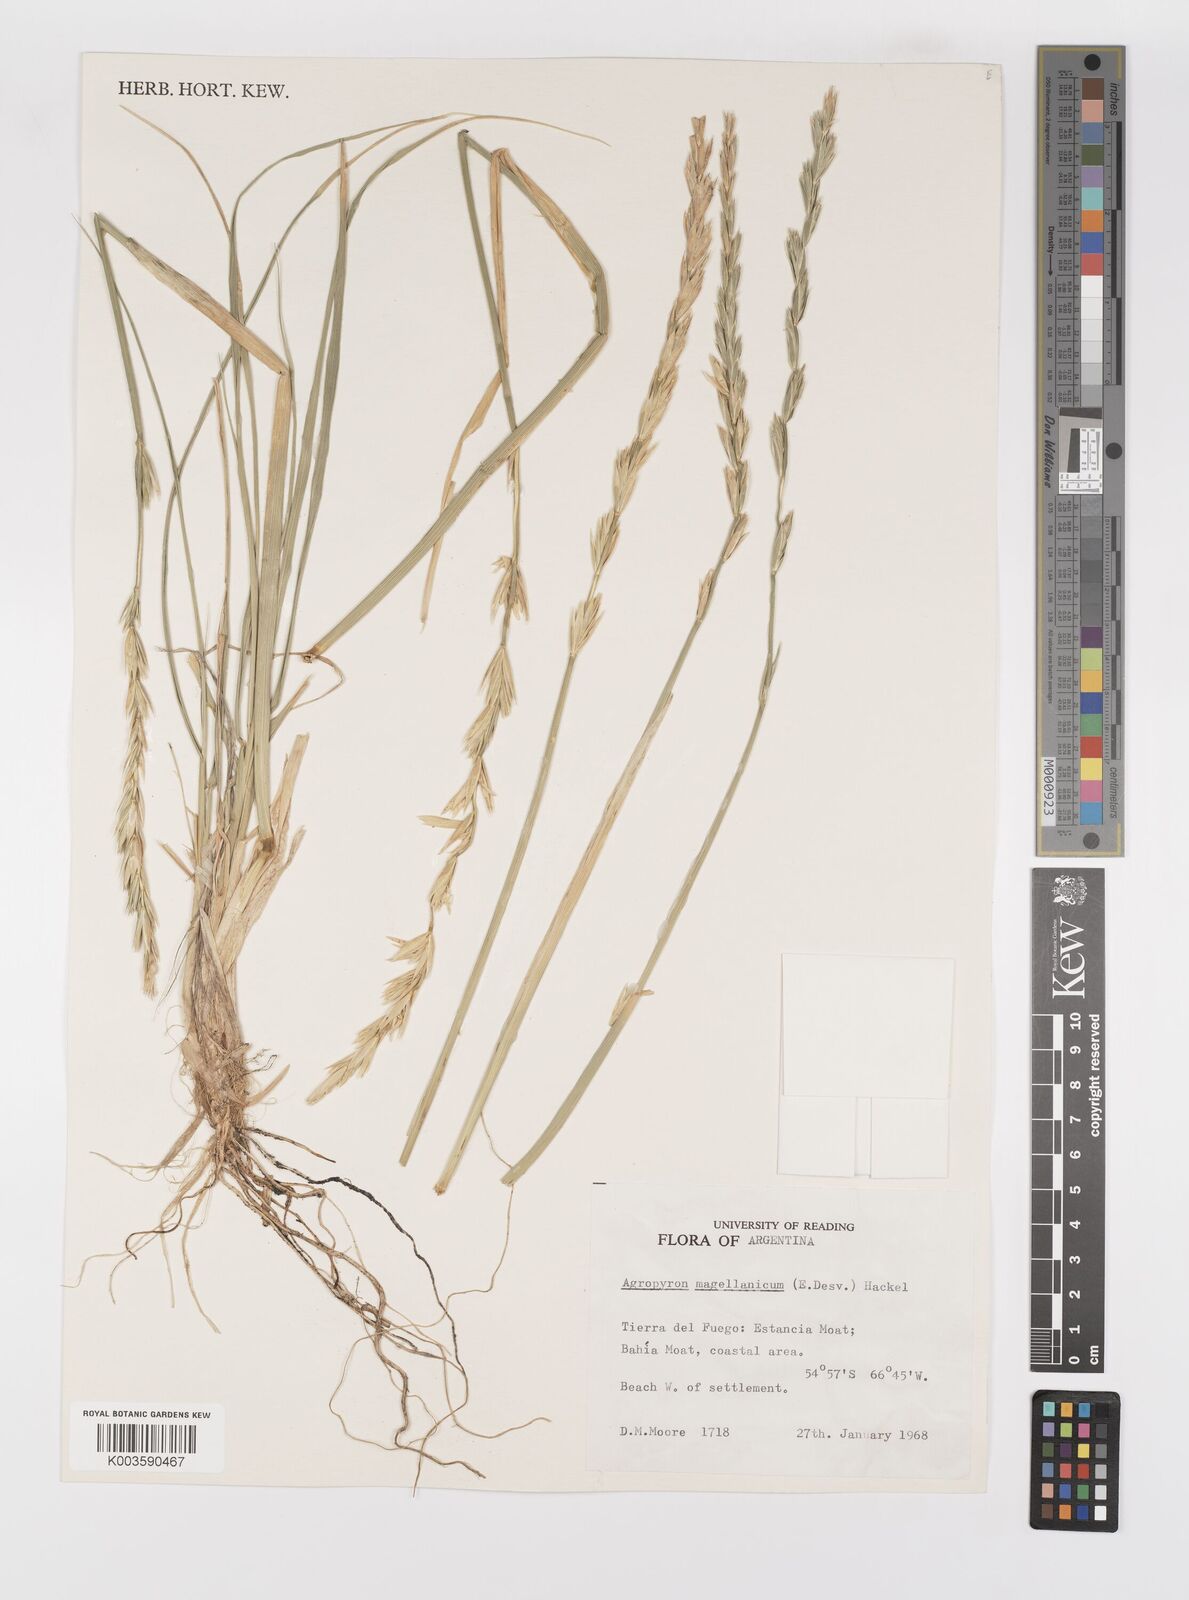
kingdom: Plantae
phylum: Tracheophyta
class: Liliopsida
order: Poales
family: Poaceae
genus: Elymus
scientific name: Elymus magellanicus
